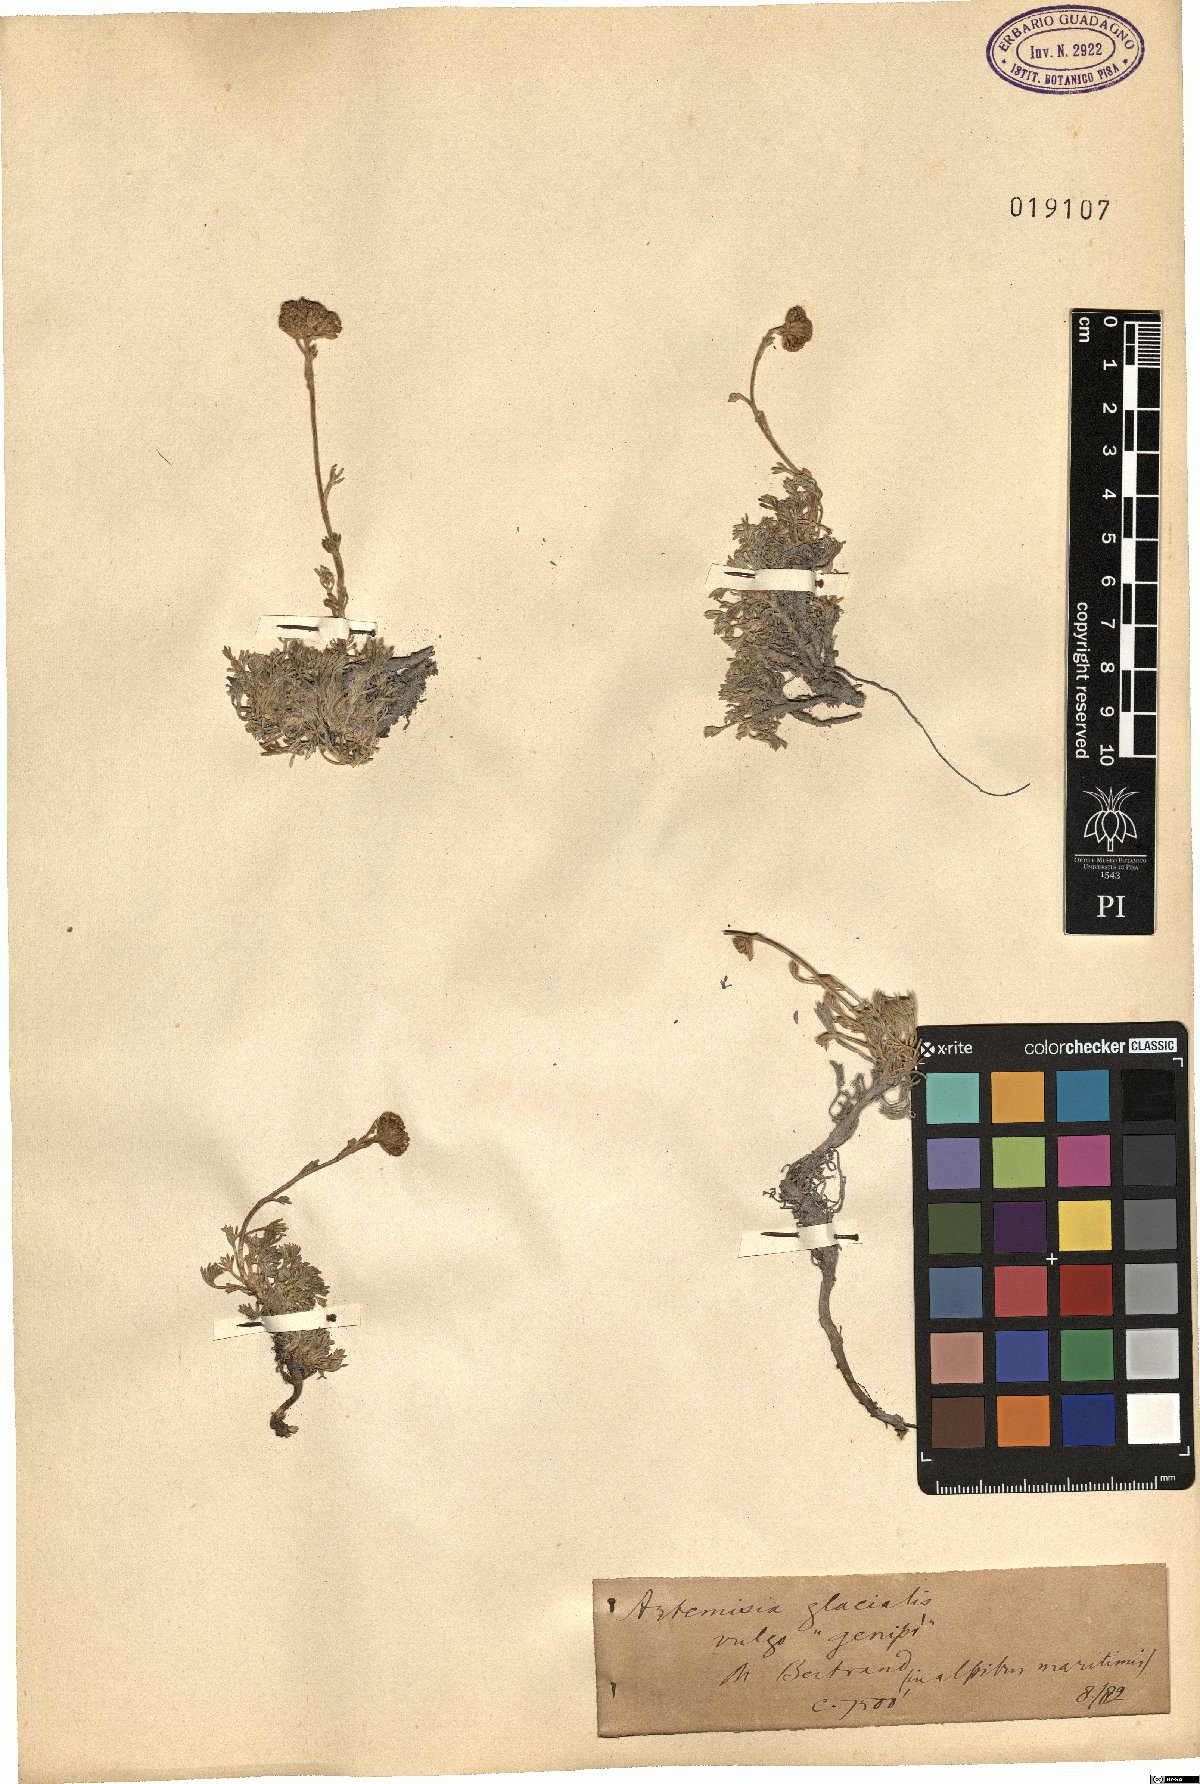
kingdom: Plantae
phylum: Tracheophyta
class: Magnoliopsida
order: Asterales
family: Asteraceae
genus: Artemisia
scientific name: Artemisia glacialis
